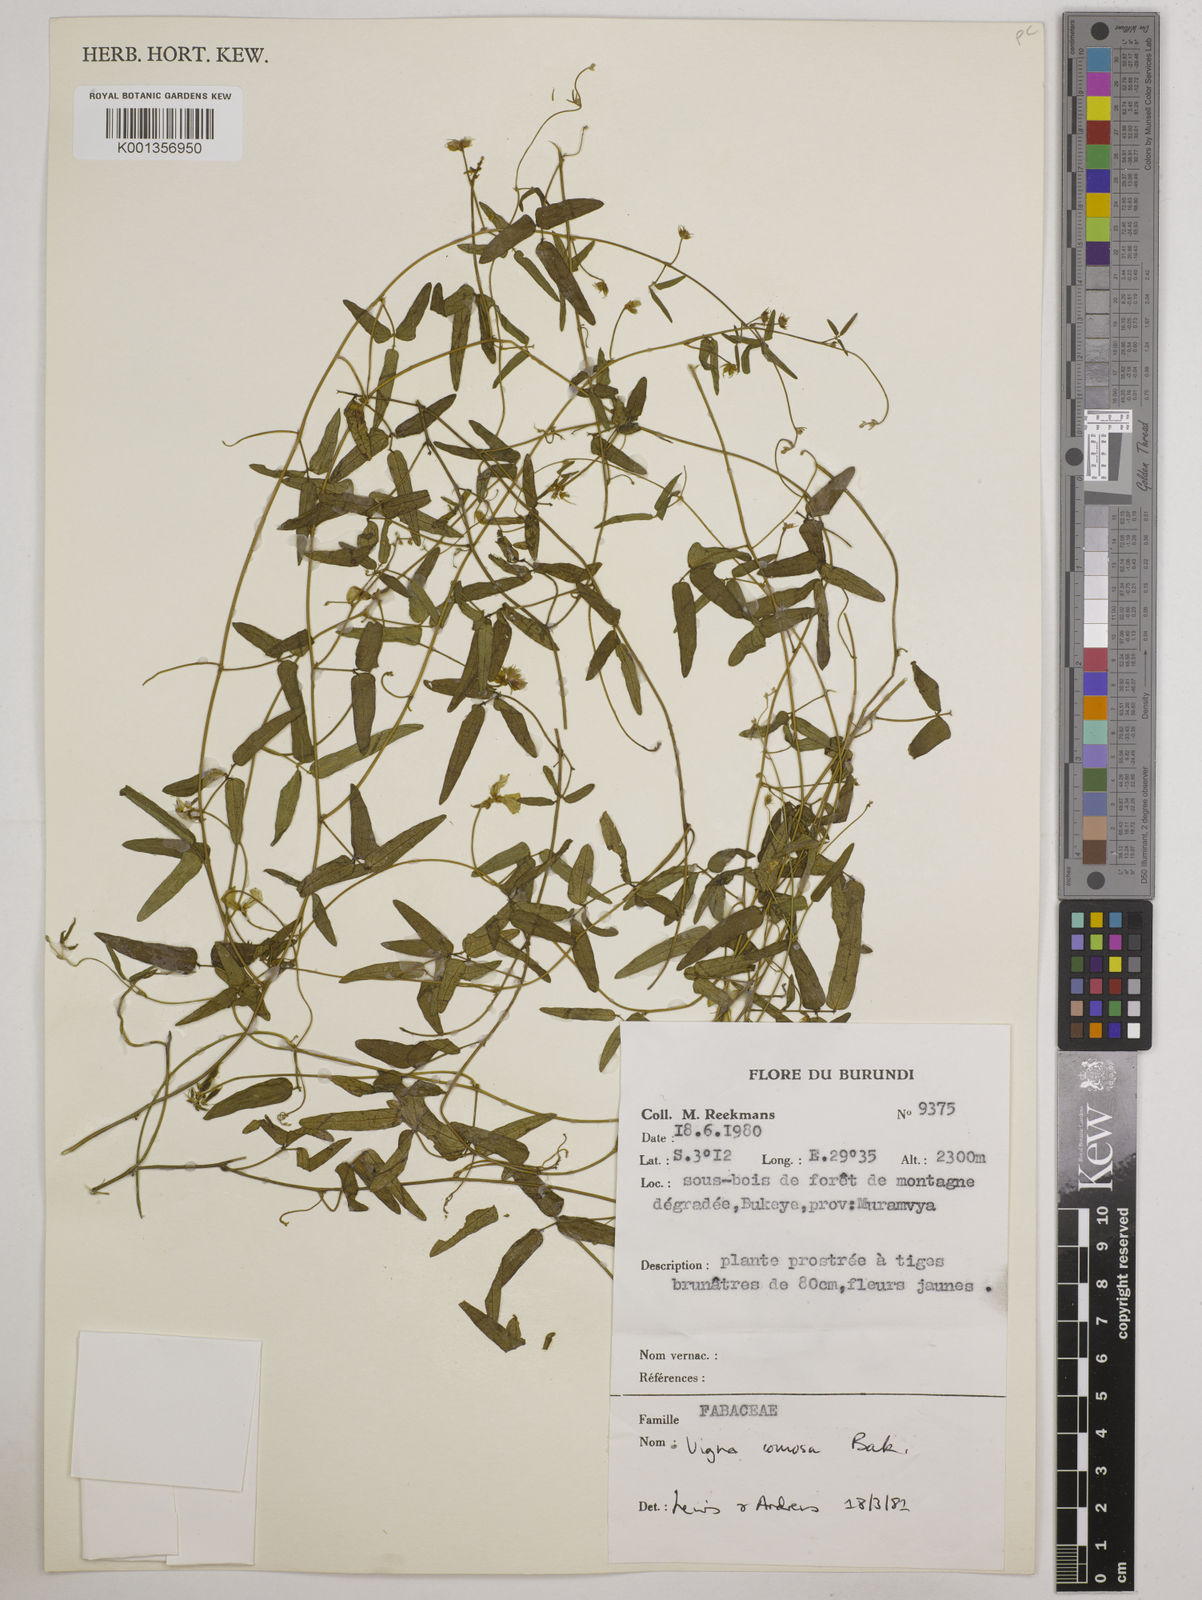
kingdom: Plantae
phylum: Tracheophyta
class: Magnoliopsida
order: Fabales
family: Fabaceae
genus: Vigna
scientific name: Vigna comosa
